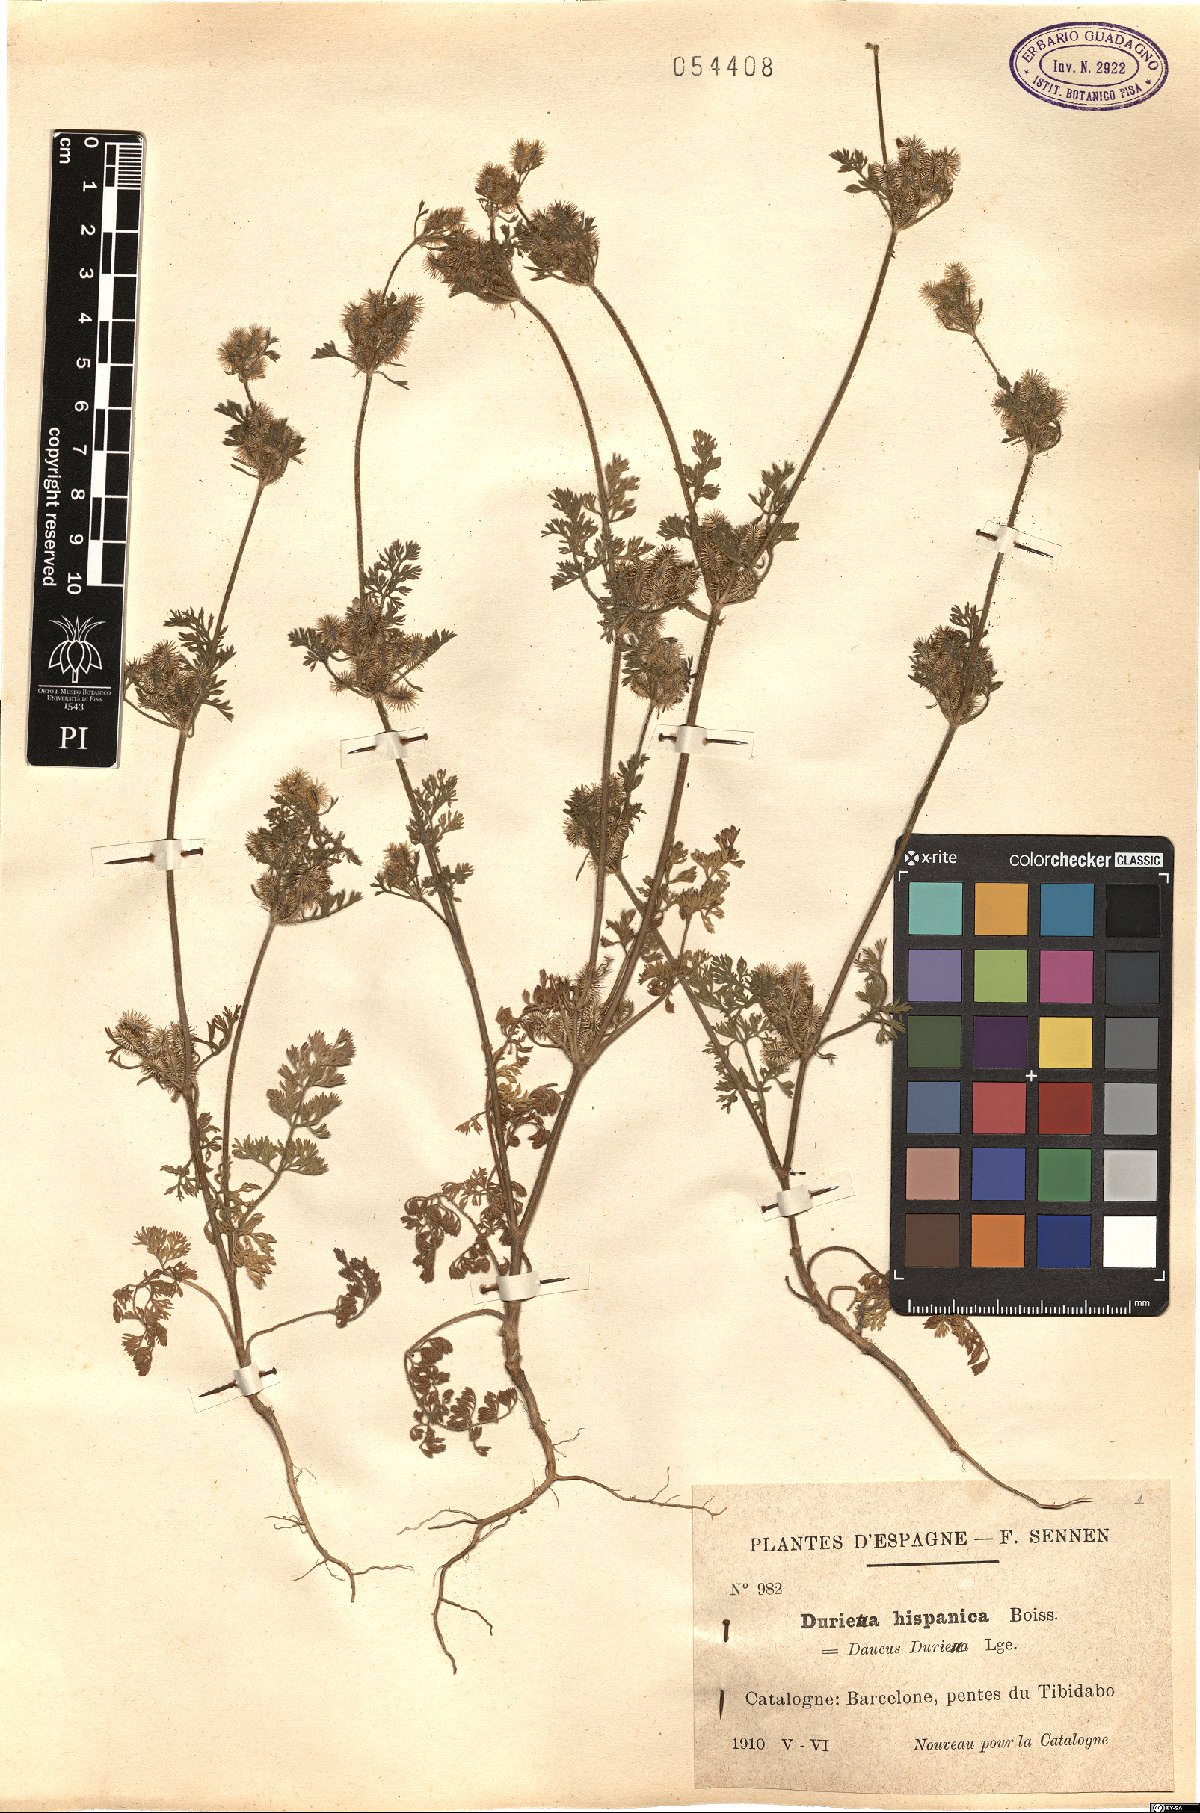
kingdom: Plantae
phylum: Tracheophyta
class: Magnoliopsida
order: Apiales
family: Apiaceae
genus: Daucus
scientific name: Daucus durieua
